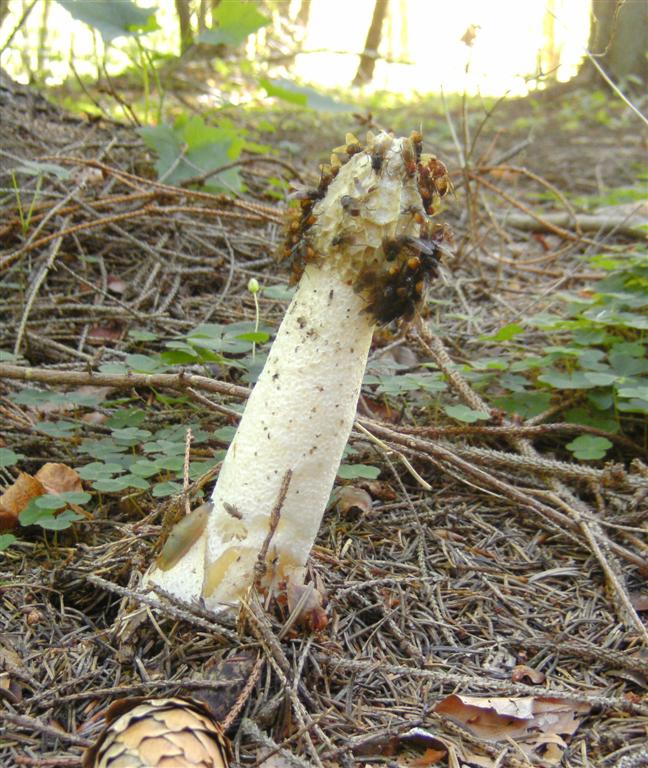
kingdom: Fungi
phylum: Basidiomycota
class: Agaricomycetes
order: Phallales
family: Phallaceae
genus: Phallus
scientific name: Phallus impudicus
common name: almindelig stinksvamp
